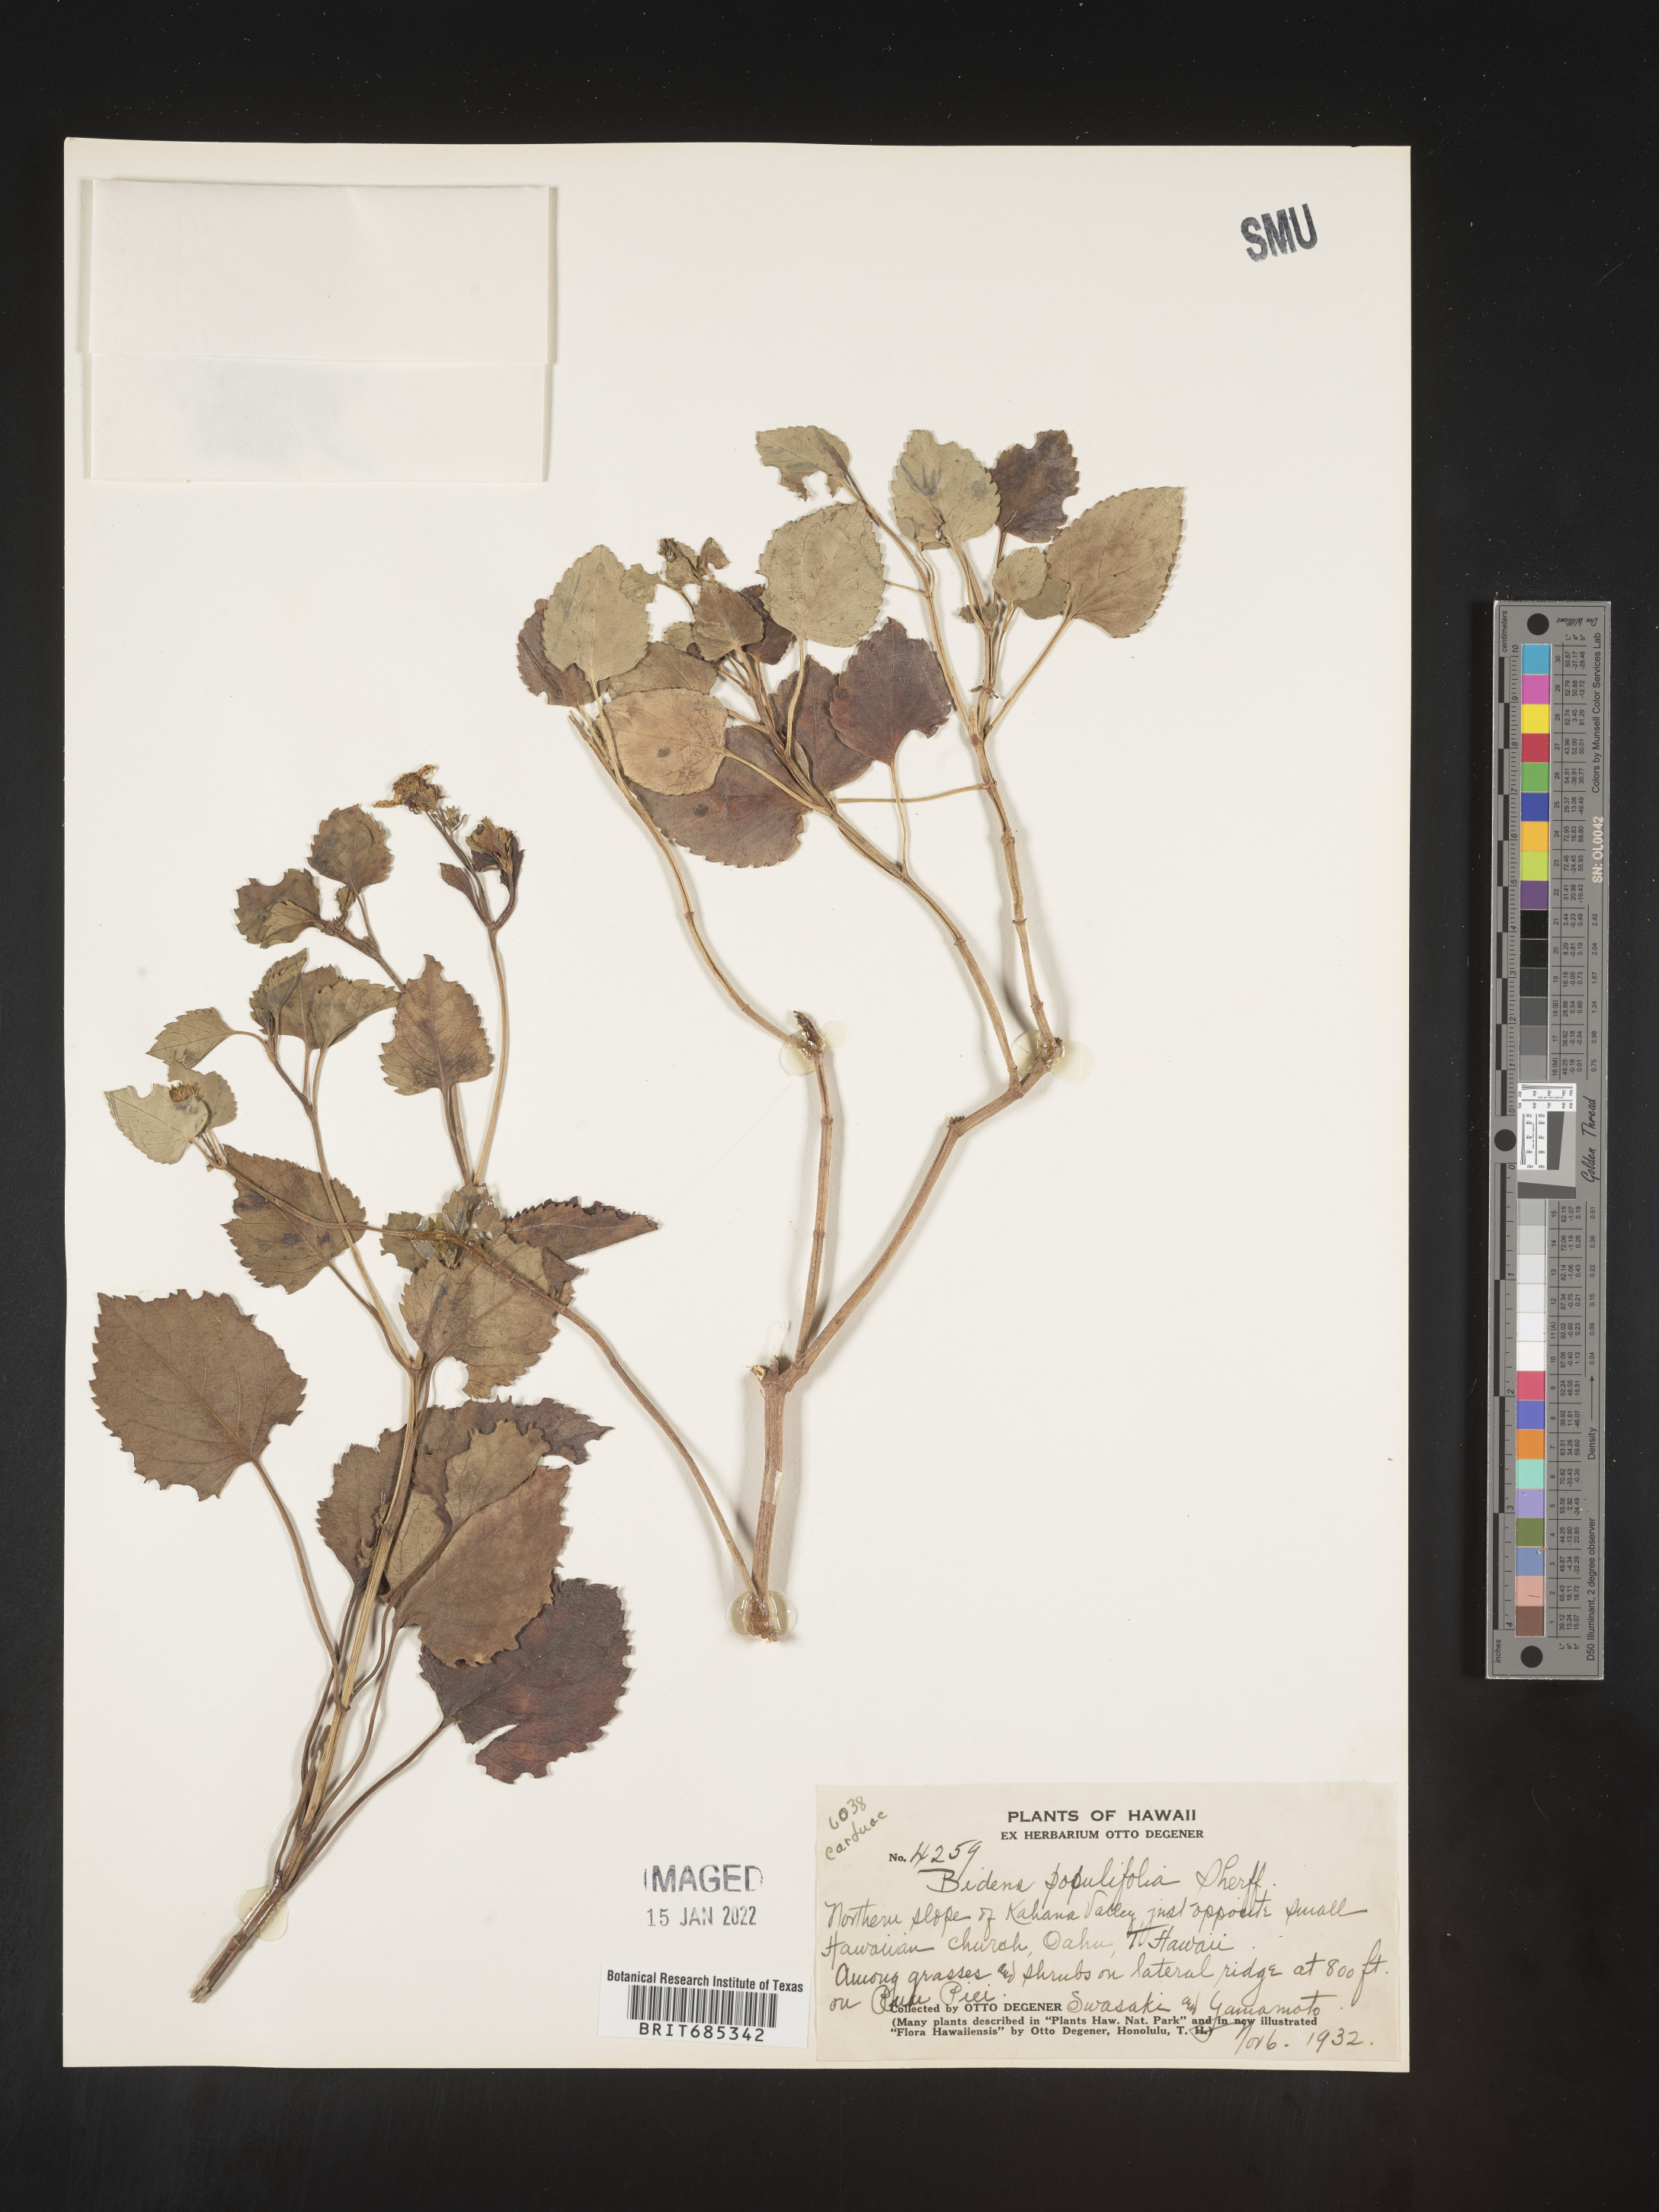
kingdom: Plantae
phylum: Tracheophyta
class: Magnoliopsida
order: Asterales
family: Asteraceae
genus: Bidens
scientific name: Bidens
